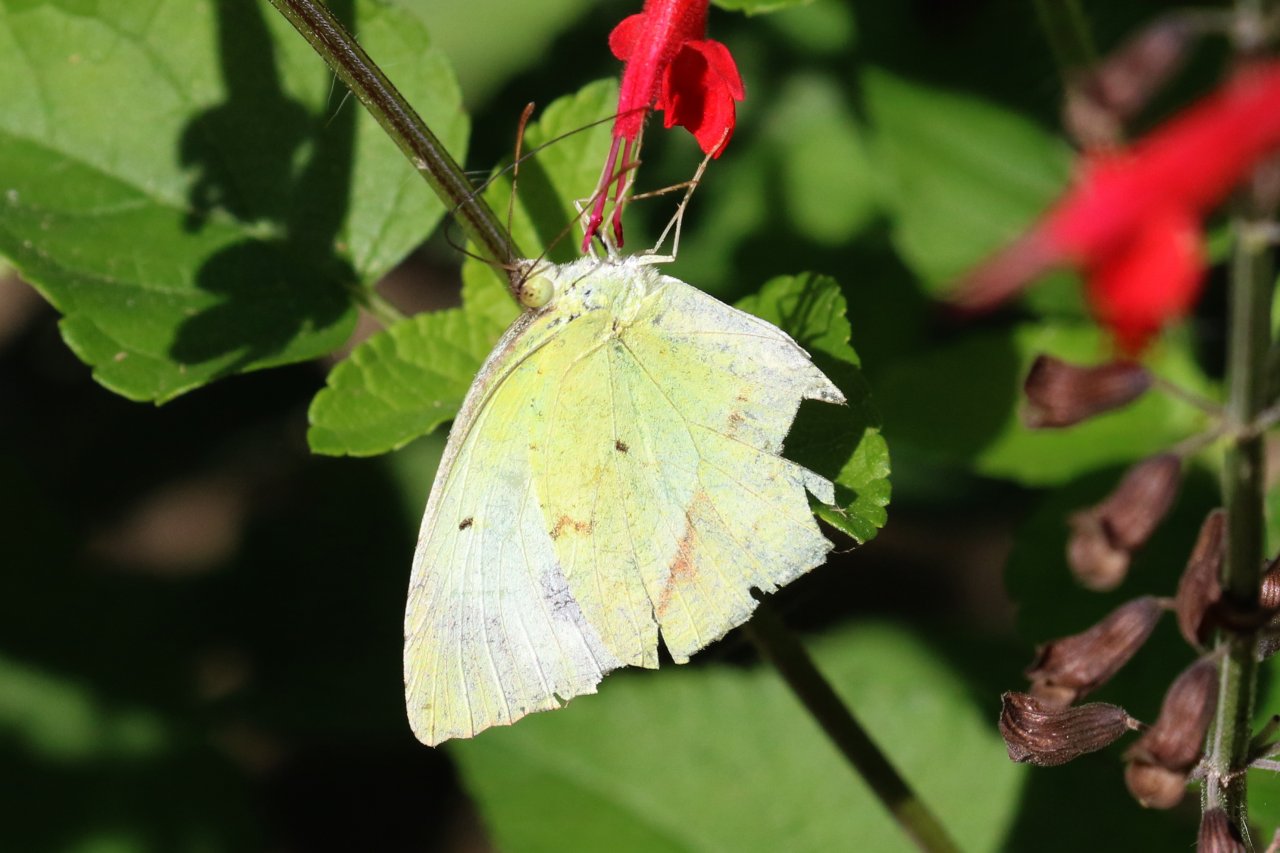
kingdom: Animalia
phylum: Arthropoda
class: Insecta
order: Lepidoptera
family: Pieridae
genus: Eurema
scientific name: Eurema mexicana
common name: Mexican Yellow
